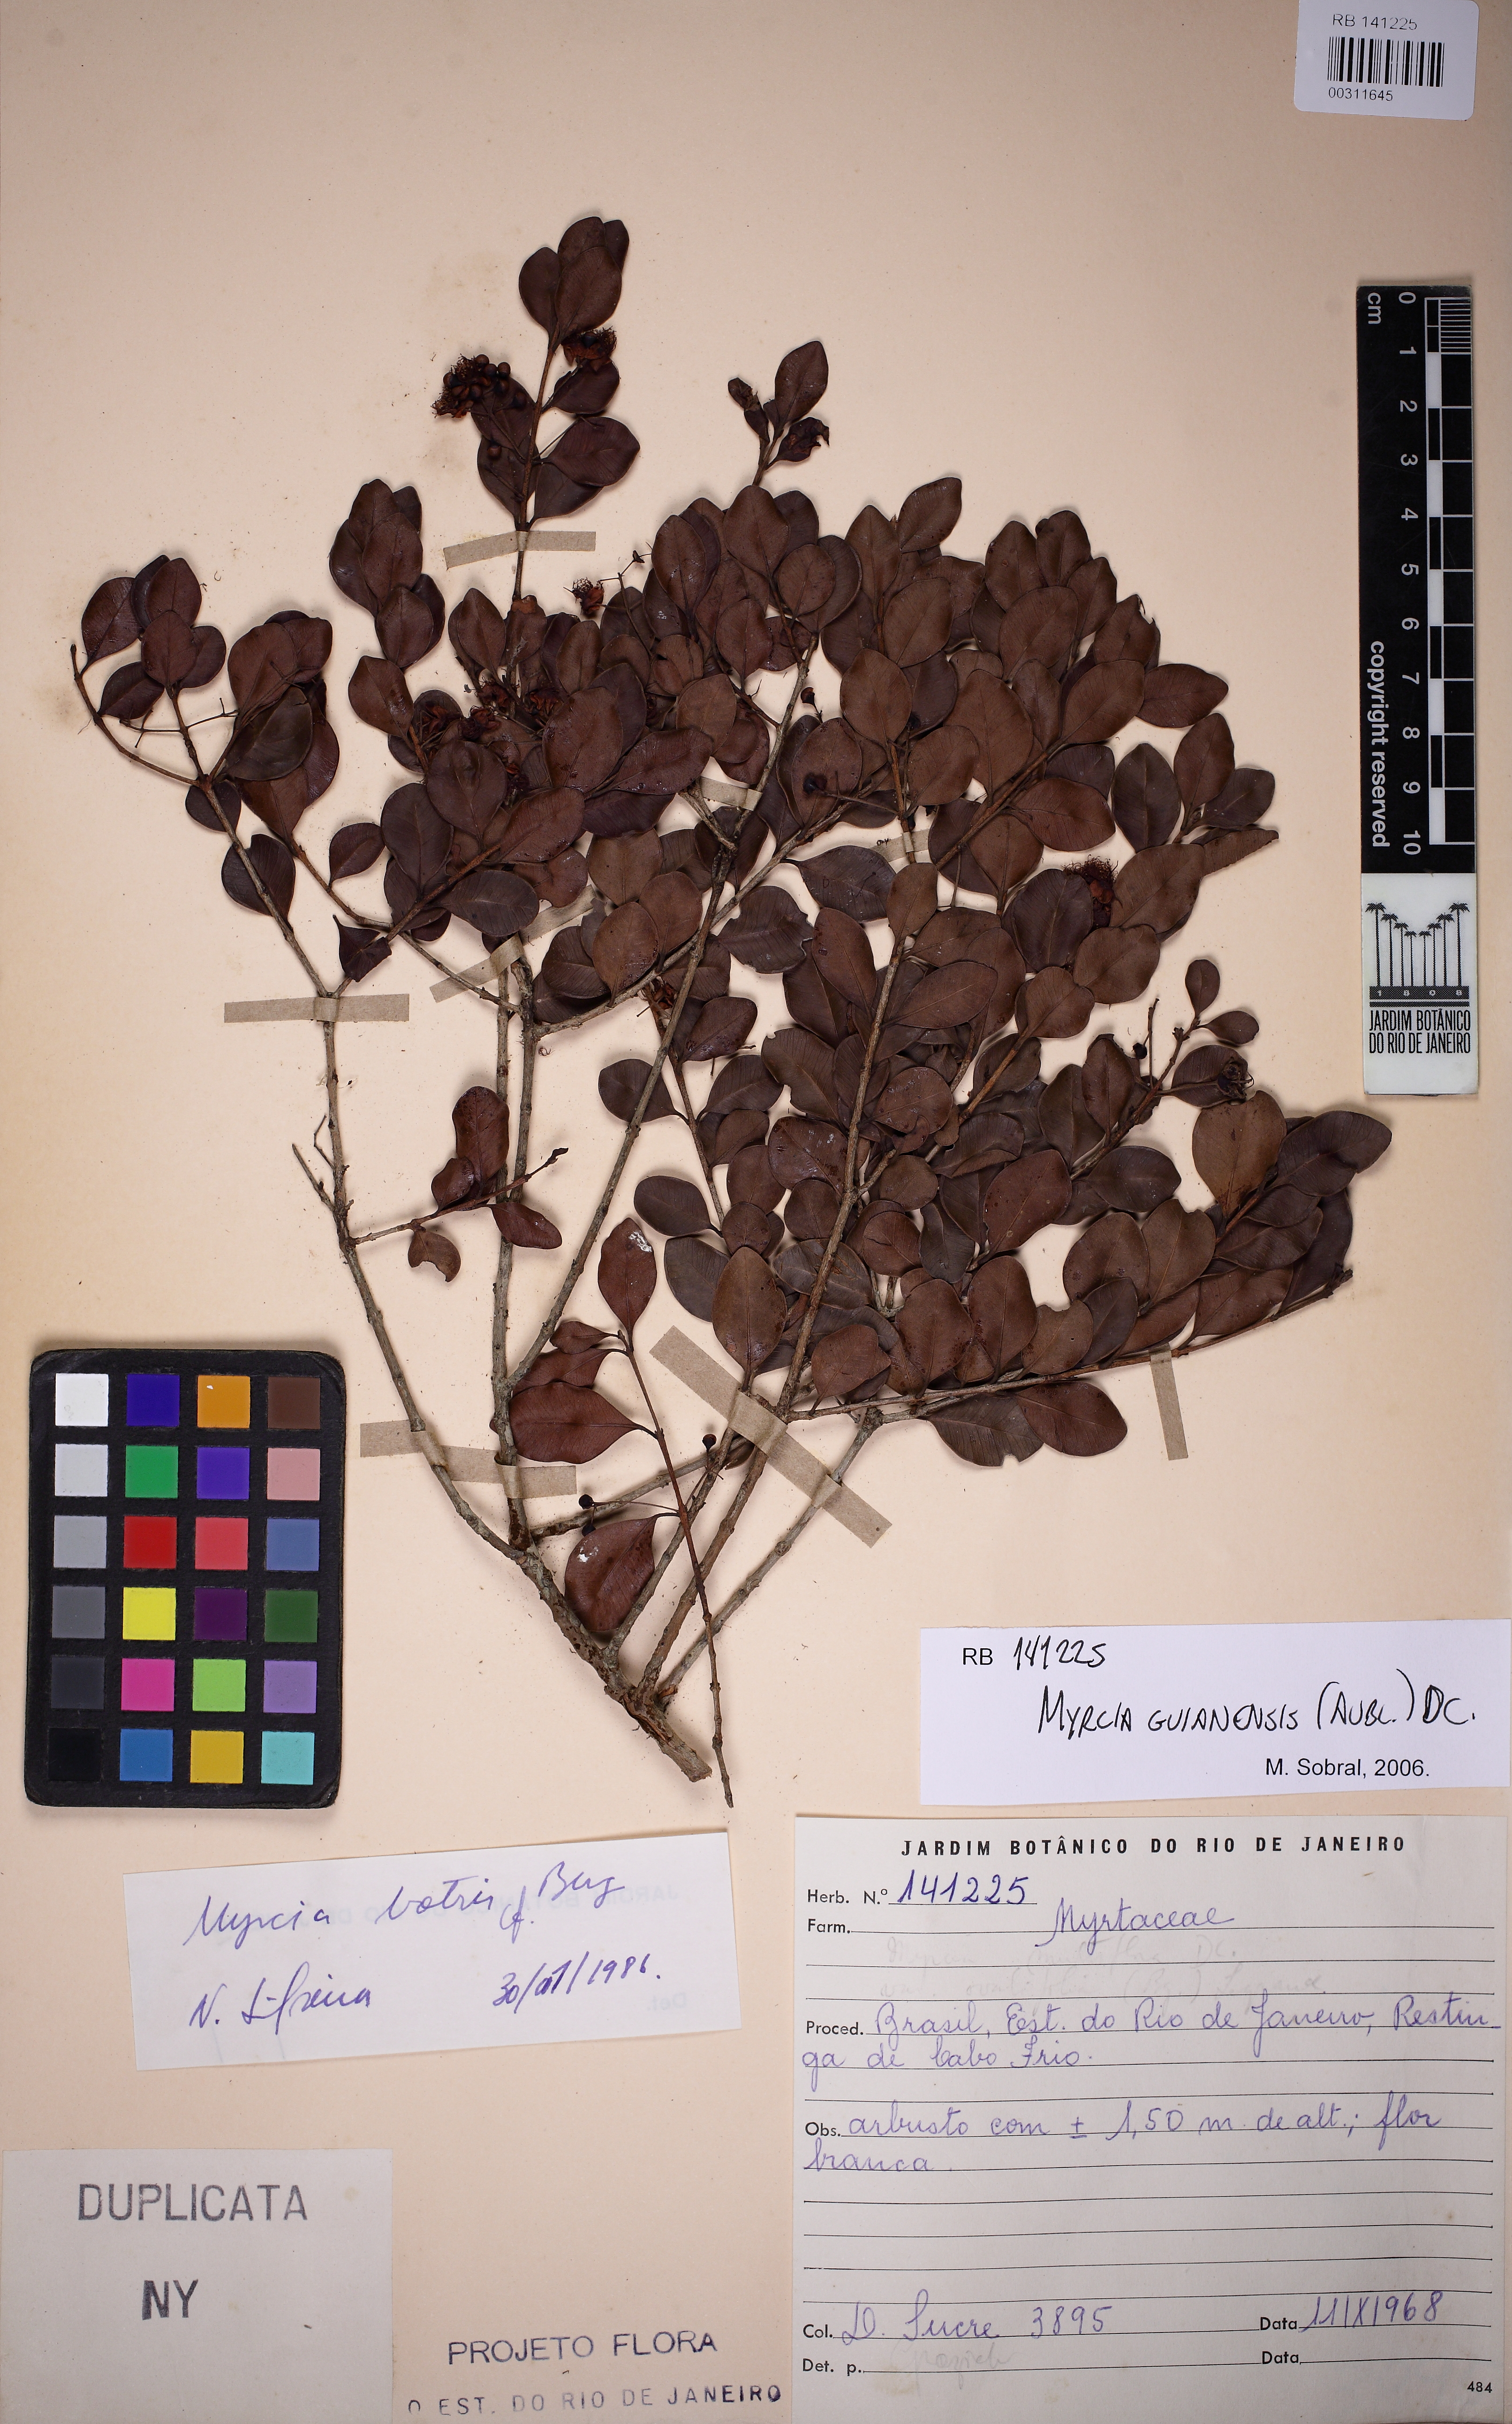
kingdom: Plantae
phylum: Tracheophyta
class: Magnoliopsida
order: Myrtales
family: Myrtaceae
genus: Myrcia
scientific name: Myrcia guianensis
